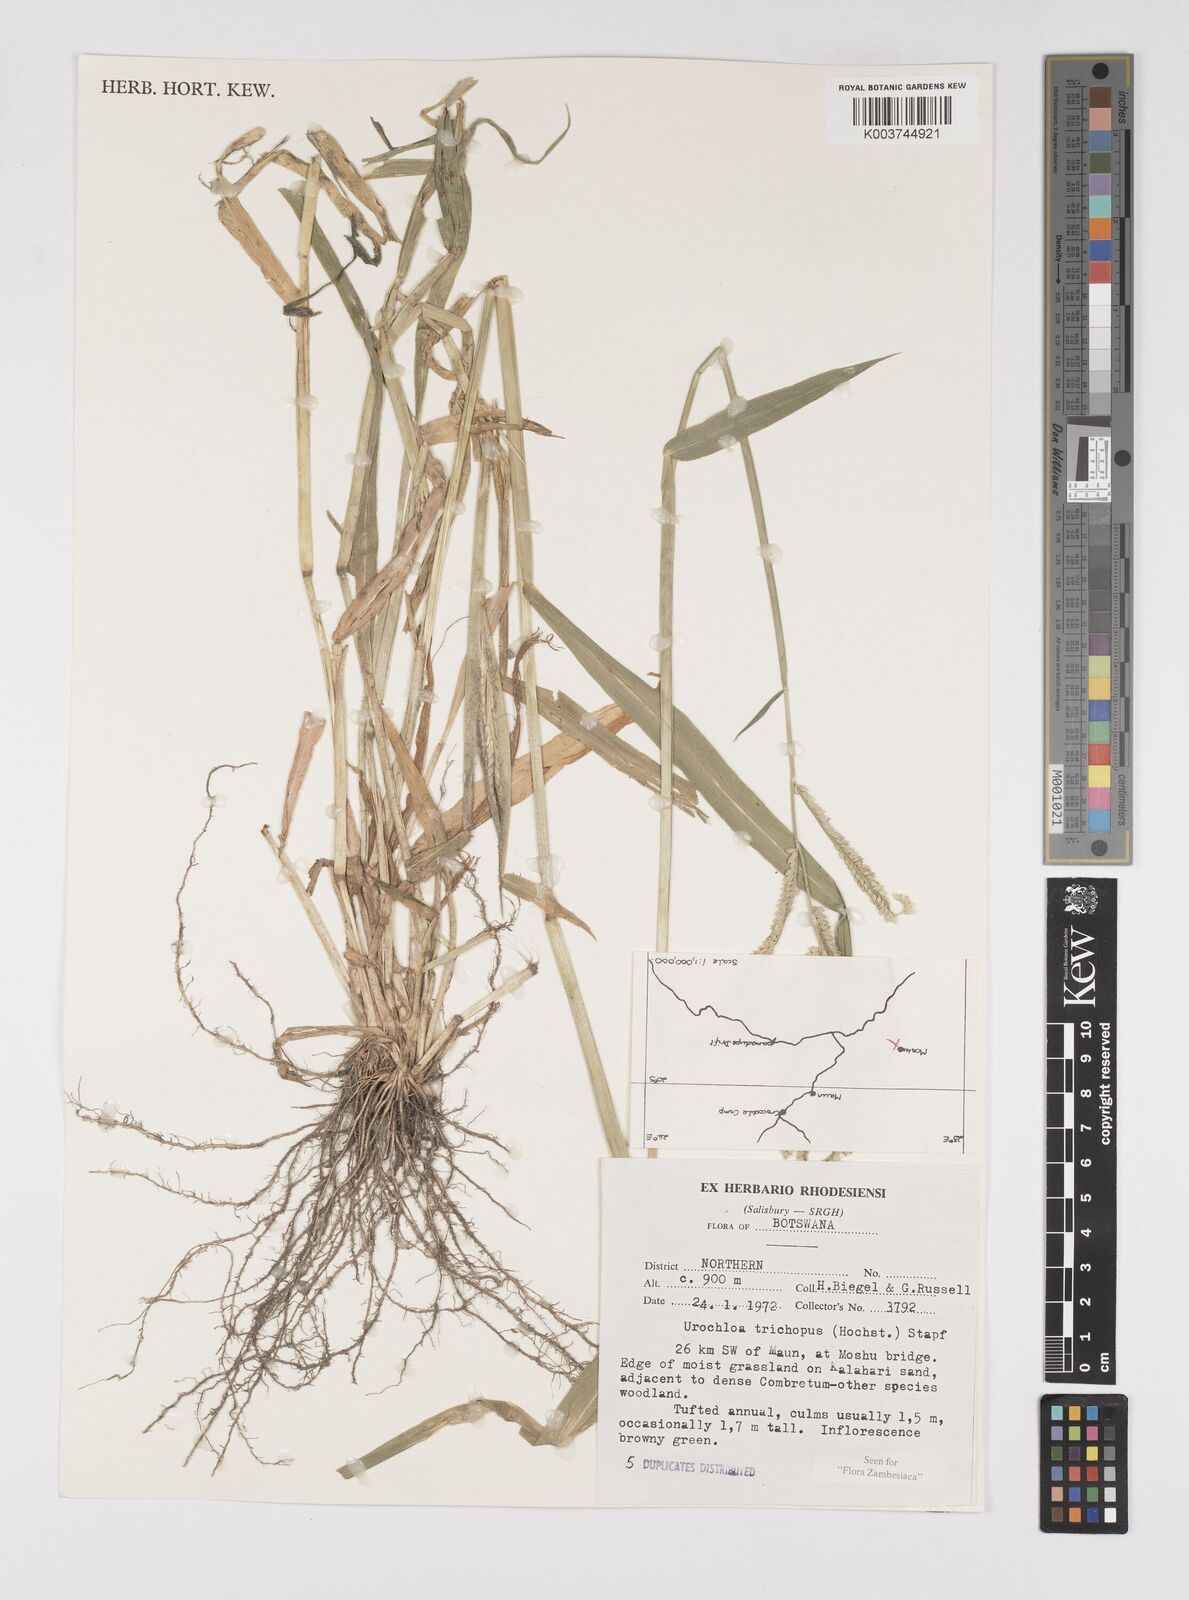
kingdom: Plantae
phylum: Tracheophyta
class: Liliopsida
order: Poales
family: Poaceae
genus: Urochloa
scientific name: Urochloa trichopus
